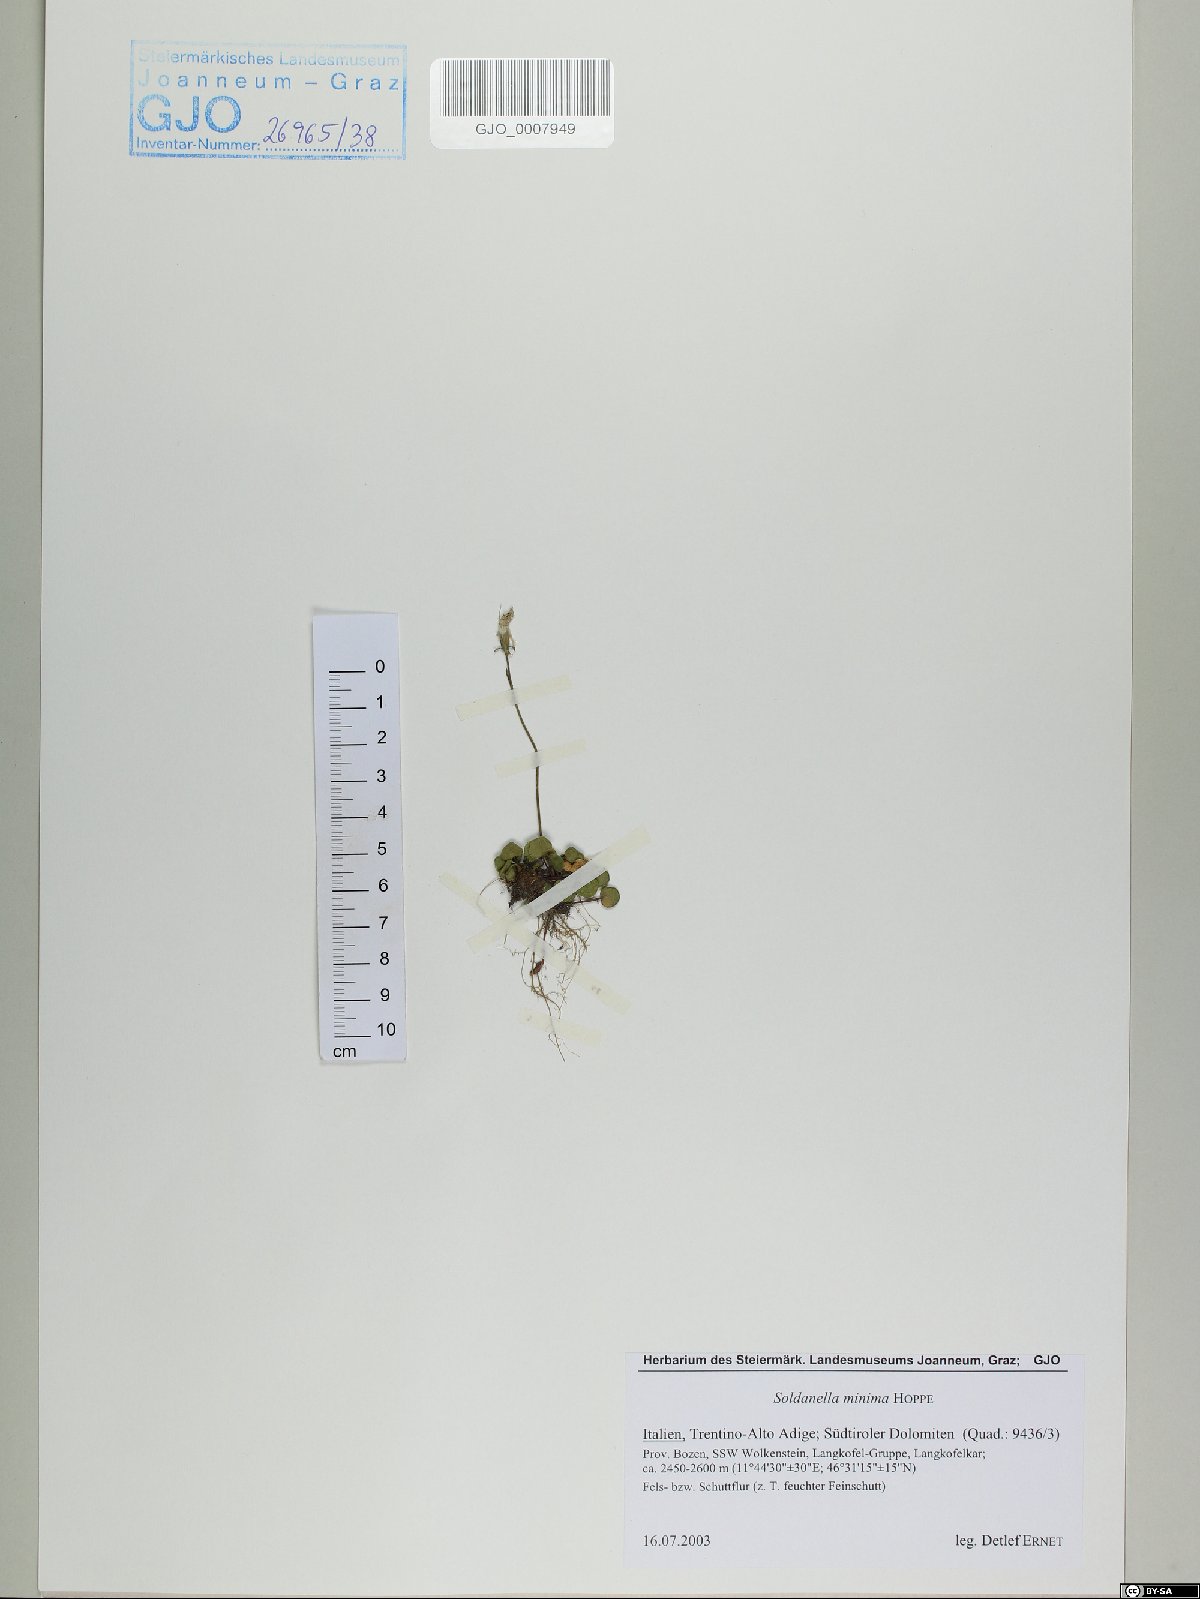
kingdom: Plantae
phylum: Tracheophyta
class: Magnoliopsida
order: Ericales
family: Primulaceae
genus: Soldanella
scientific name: Soldanella minima
